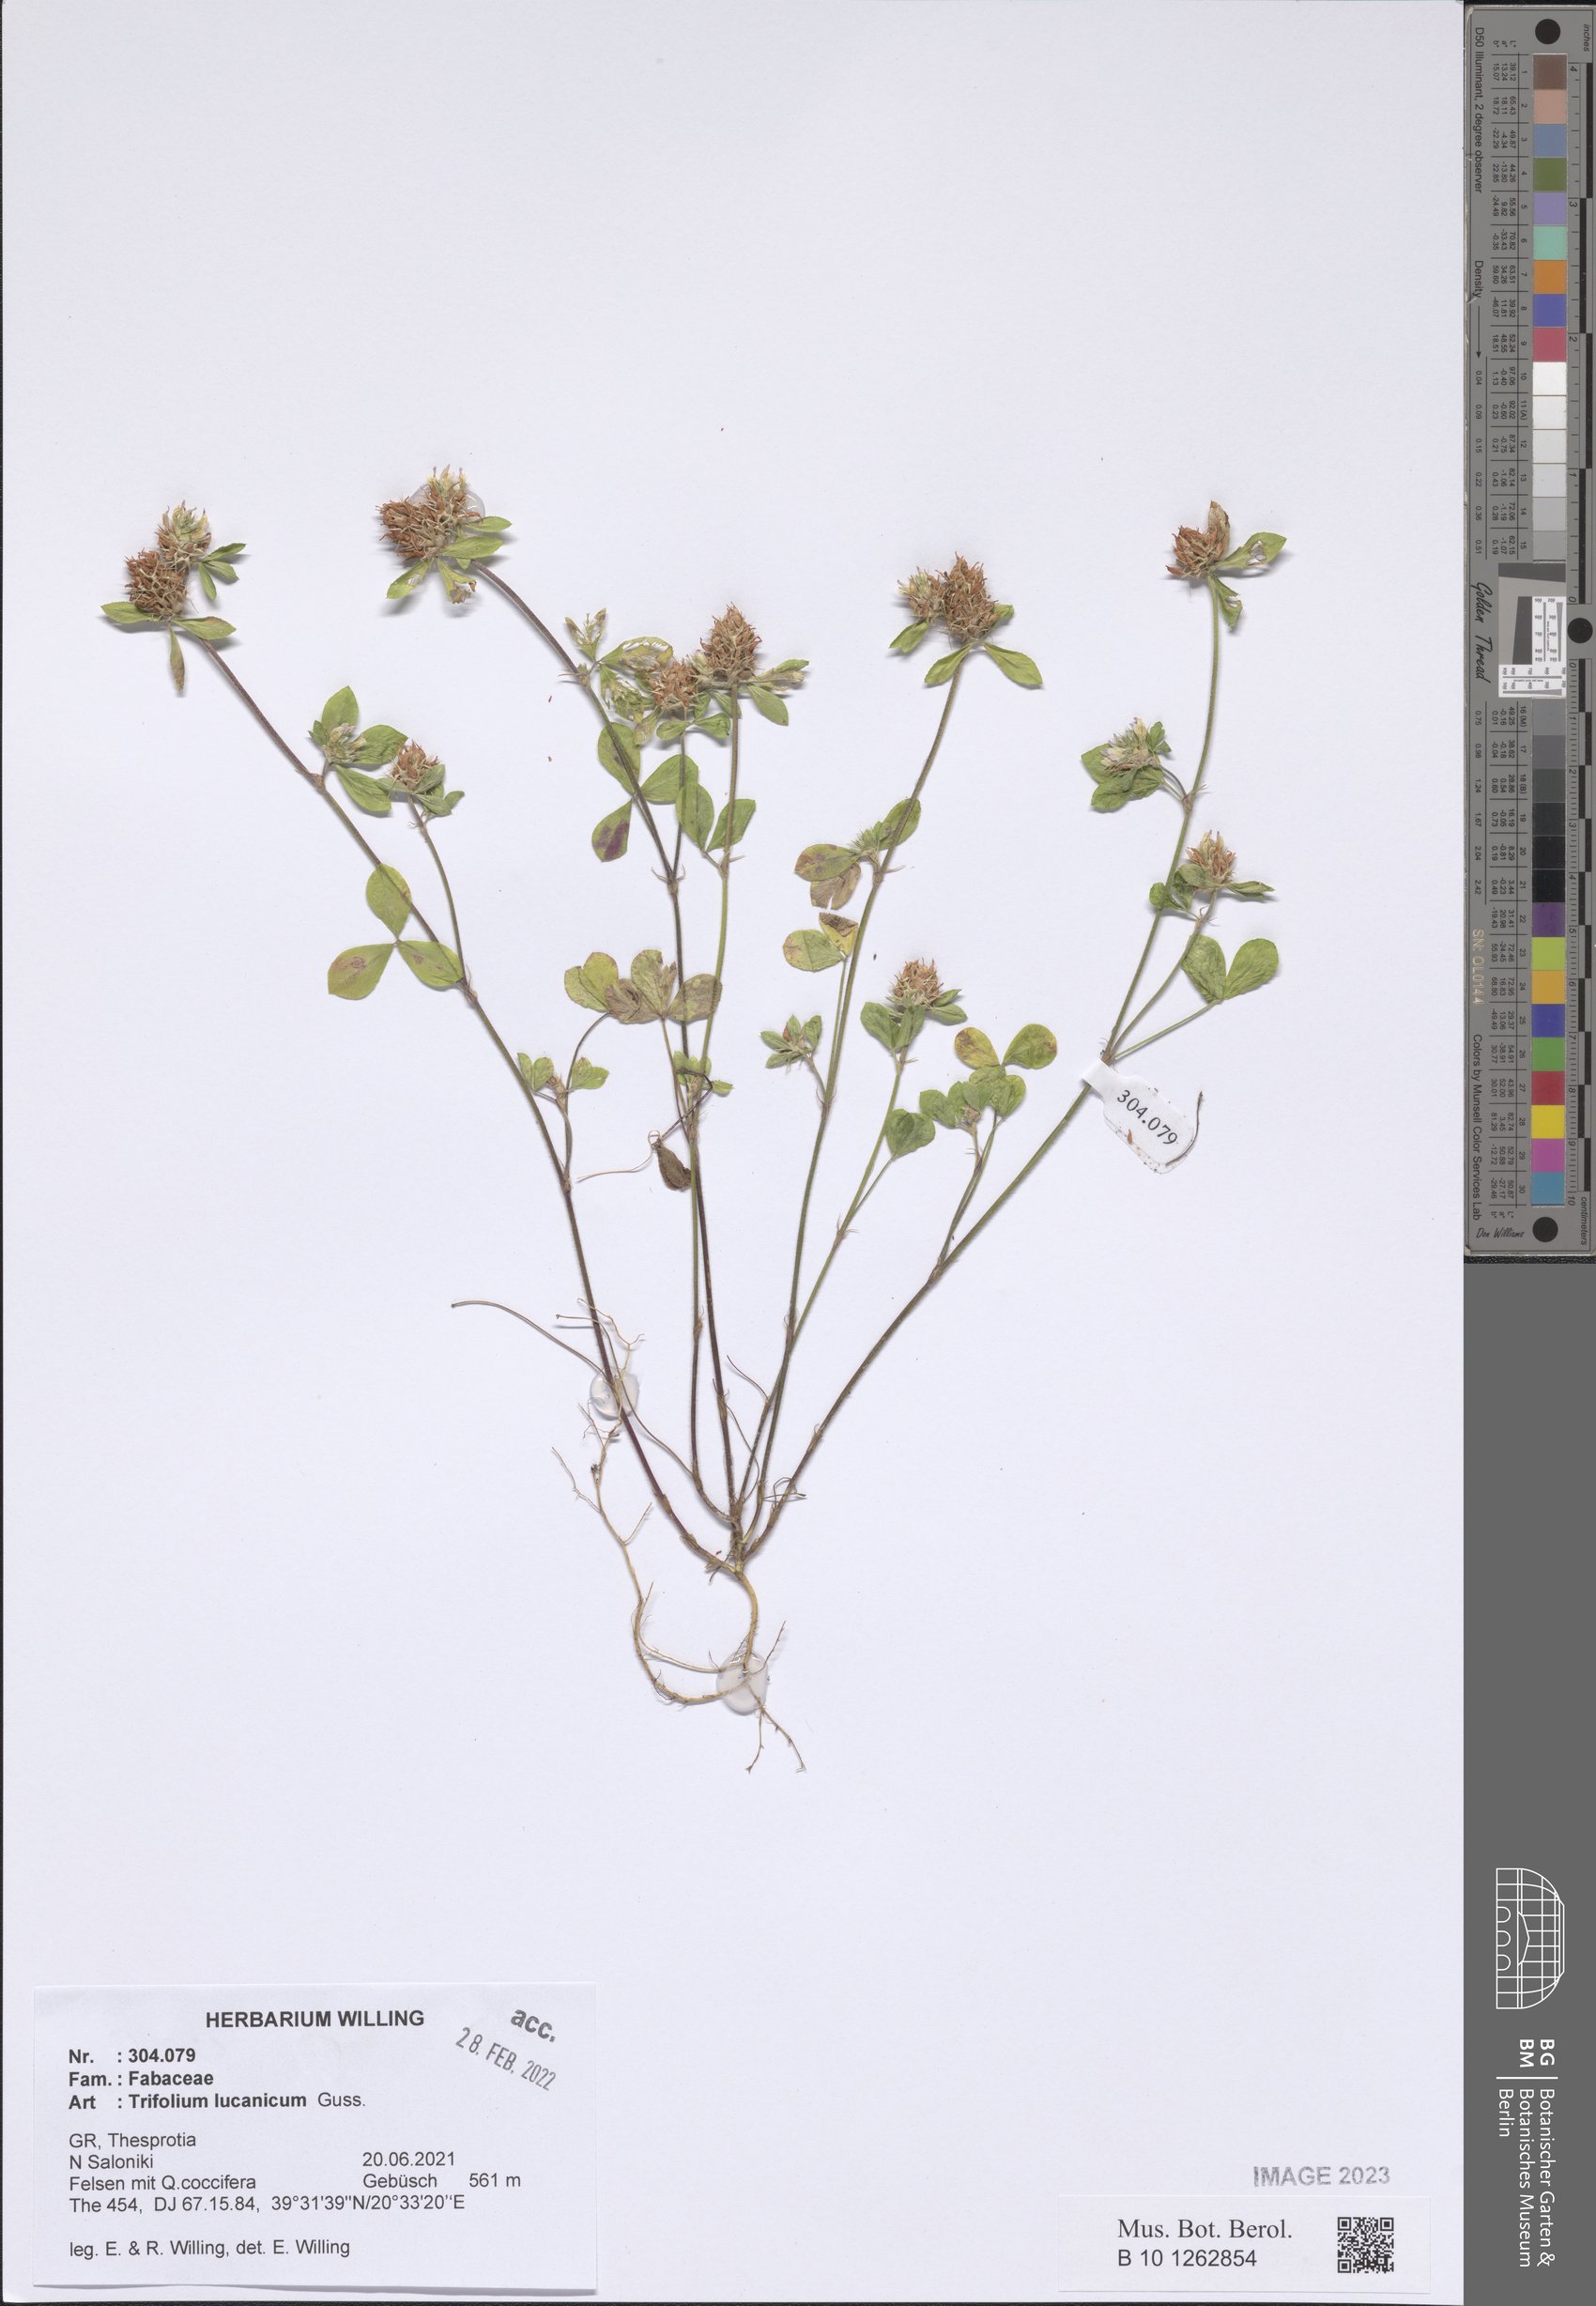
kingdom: Plantae
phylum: Tracheophyta
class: Magnoliopsida
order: Fabales
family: Fabaceae
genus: Trifolium
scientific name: Trifolium lucanicum
